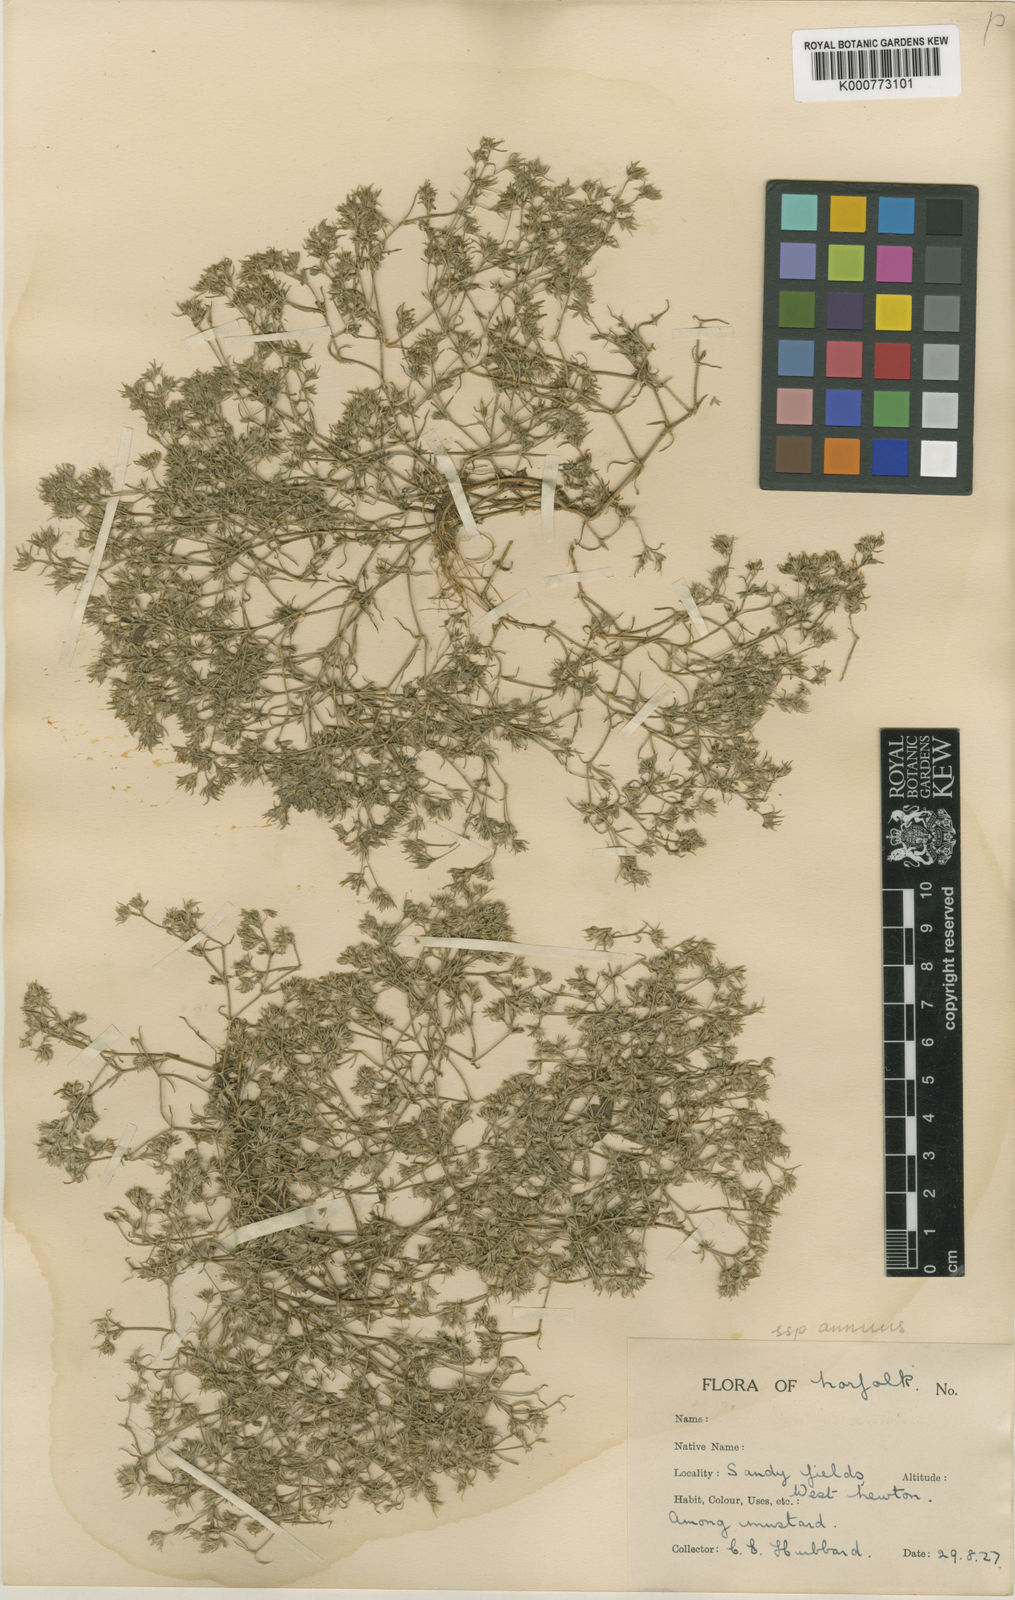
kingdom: Plantae
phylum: Tracheophyta
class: Magnoliopsida
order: Caryophyllales
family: Caryophyllaceae
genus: Scleranthus
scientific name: Scleranthus annuus
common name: Annual knawel
